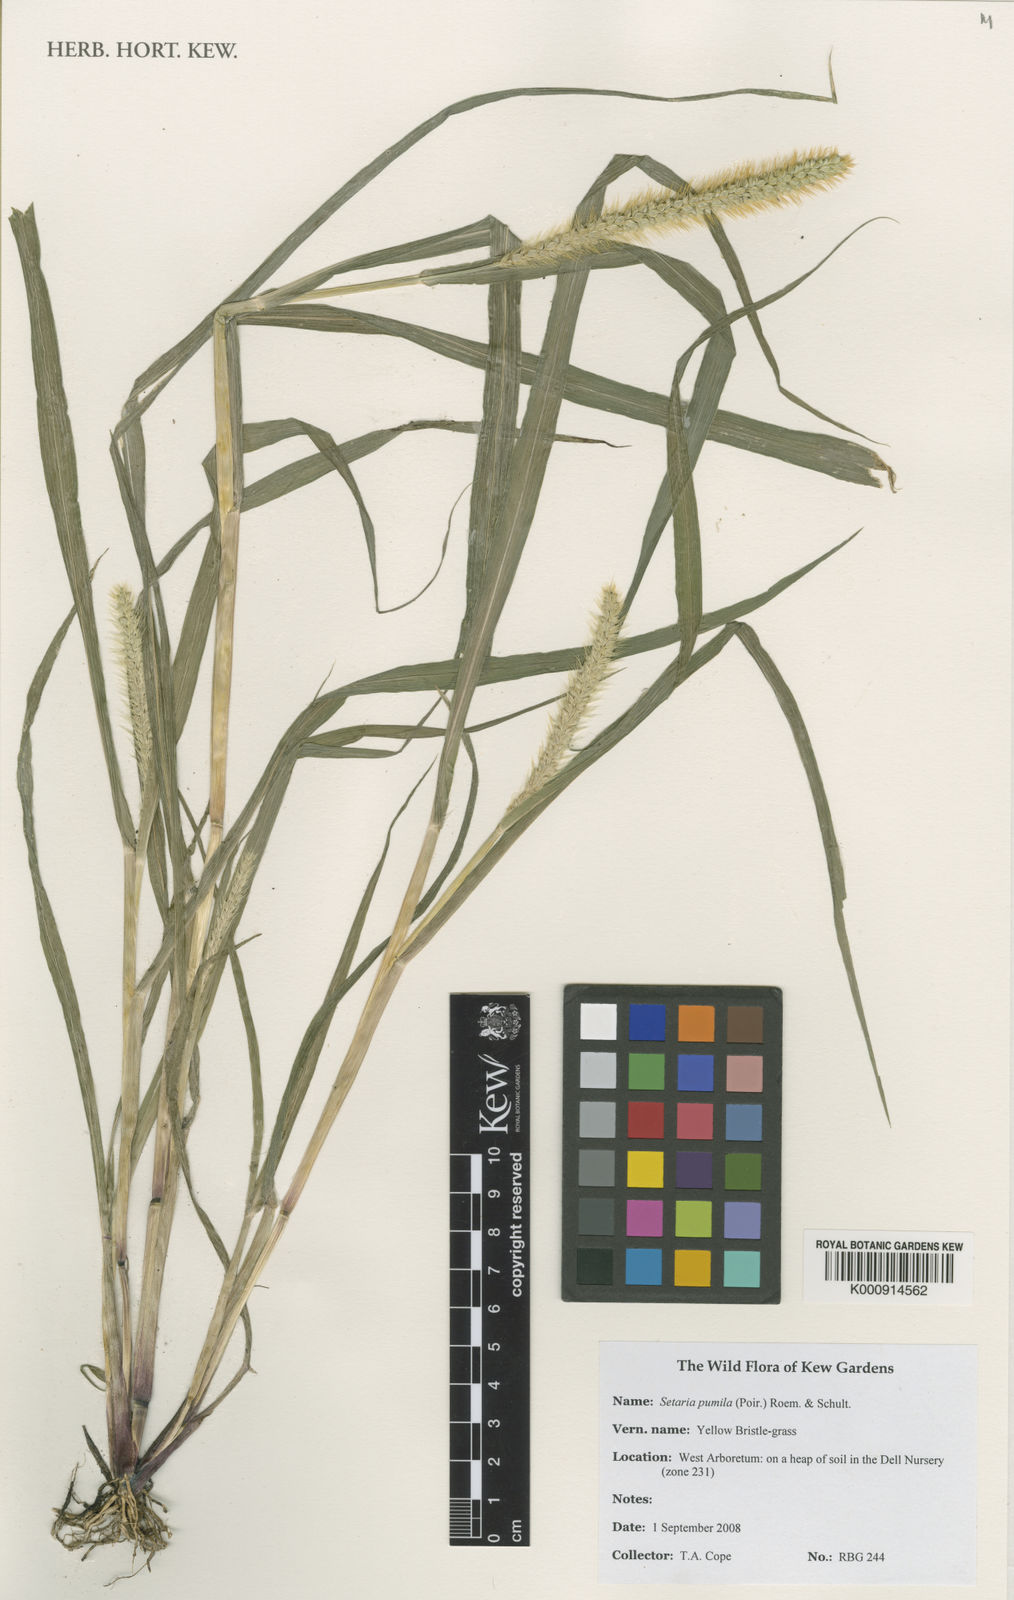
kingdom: Plantae
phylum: Tracheophyta
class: Liliopsida
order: Poales
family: Poaceae
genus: Setaria
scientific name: Setaria pumila
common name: Yellow bristle-grass
